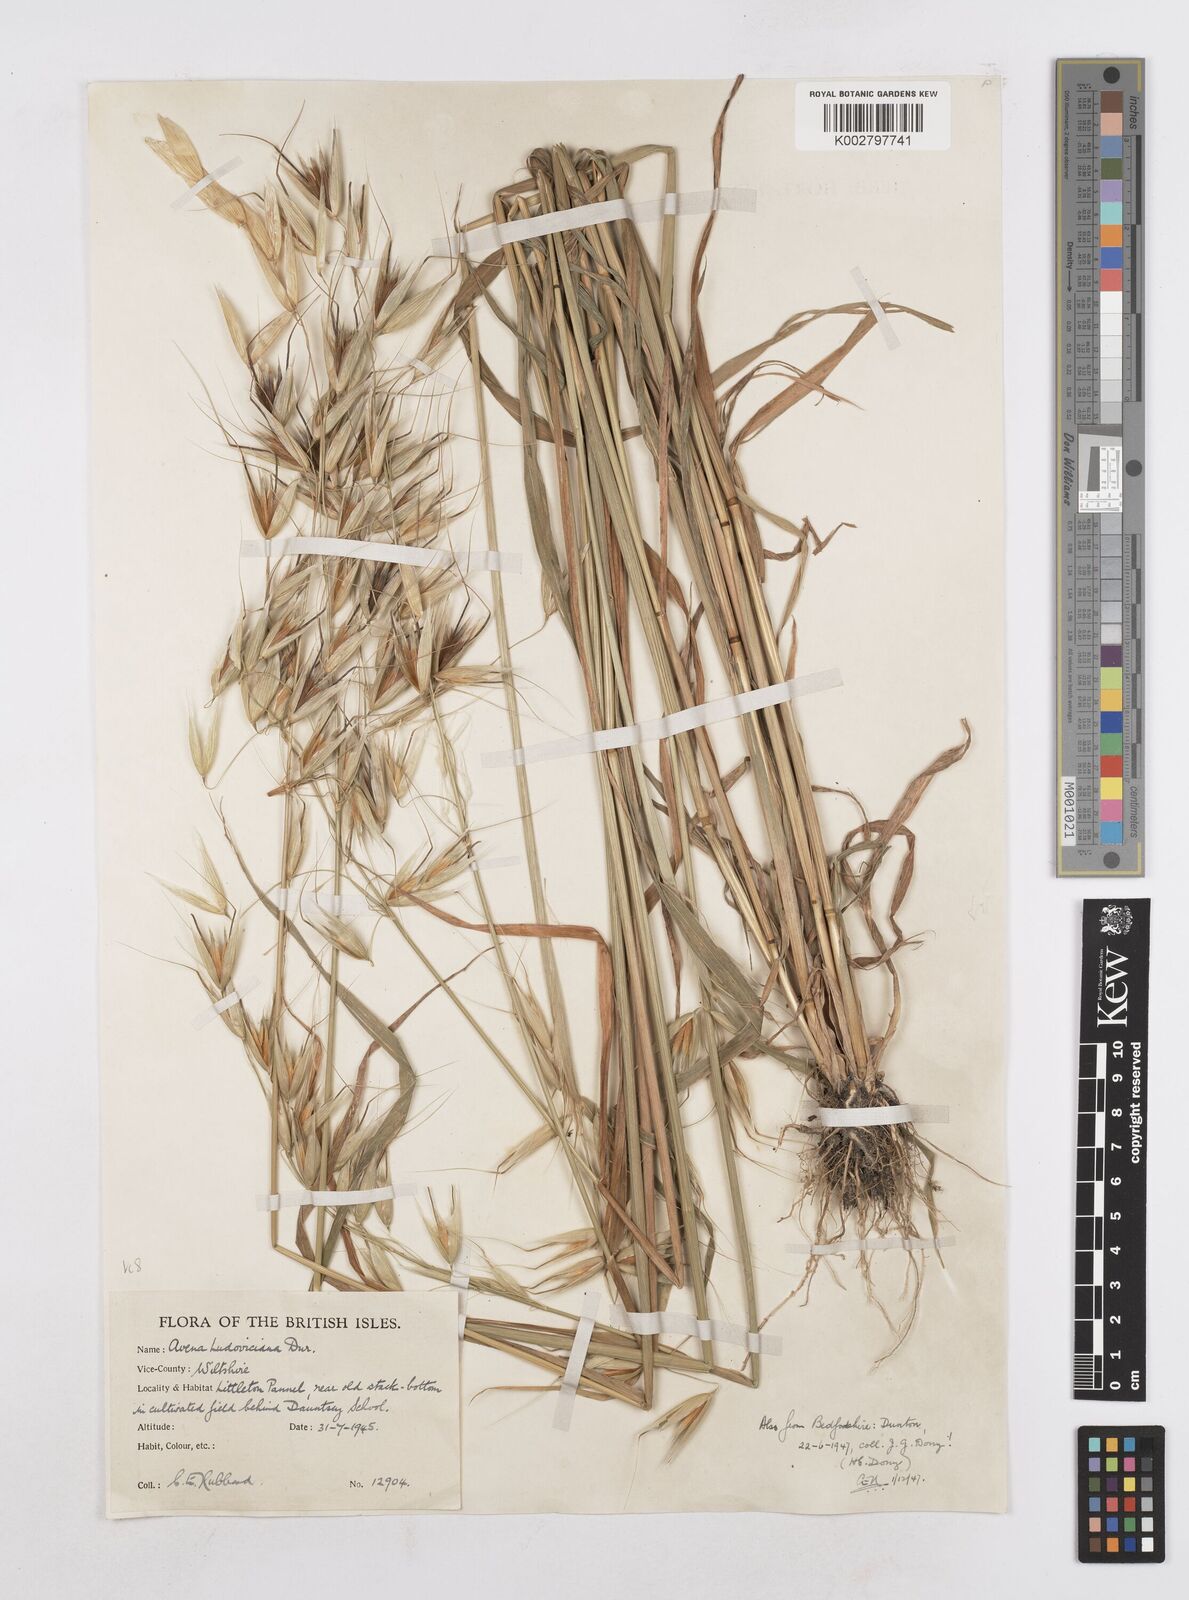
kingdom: Plantae
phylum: Tracheophyta
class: Liliopsida
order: Poales
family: Poaceae
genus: Avena
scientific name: Avena sterilis
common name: Animated oat
